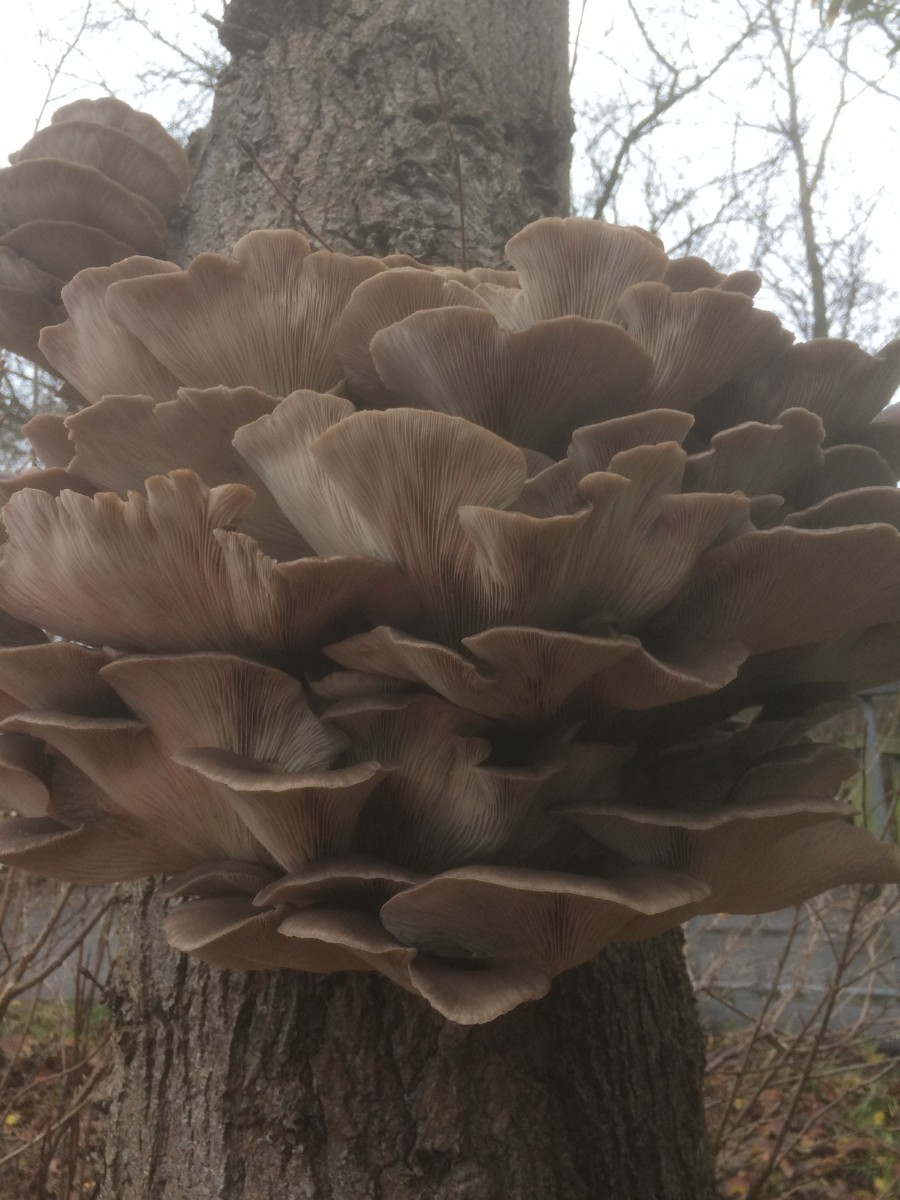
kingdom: Fungi
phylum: Basidiomycota
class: Agaricomycetes
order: Agaricales
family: Pleurotaceae
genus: Pleurotus
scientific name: Pleurotus ostreatus
